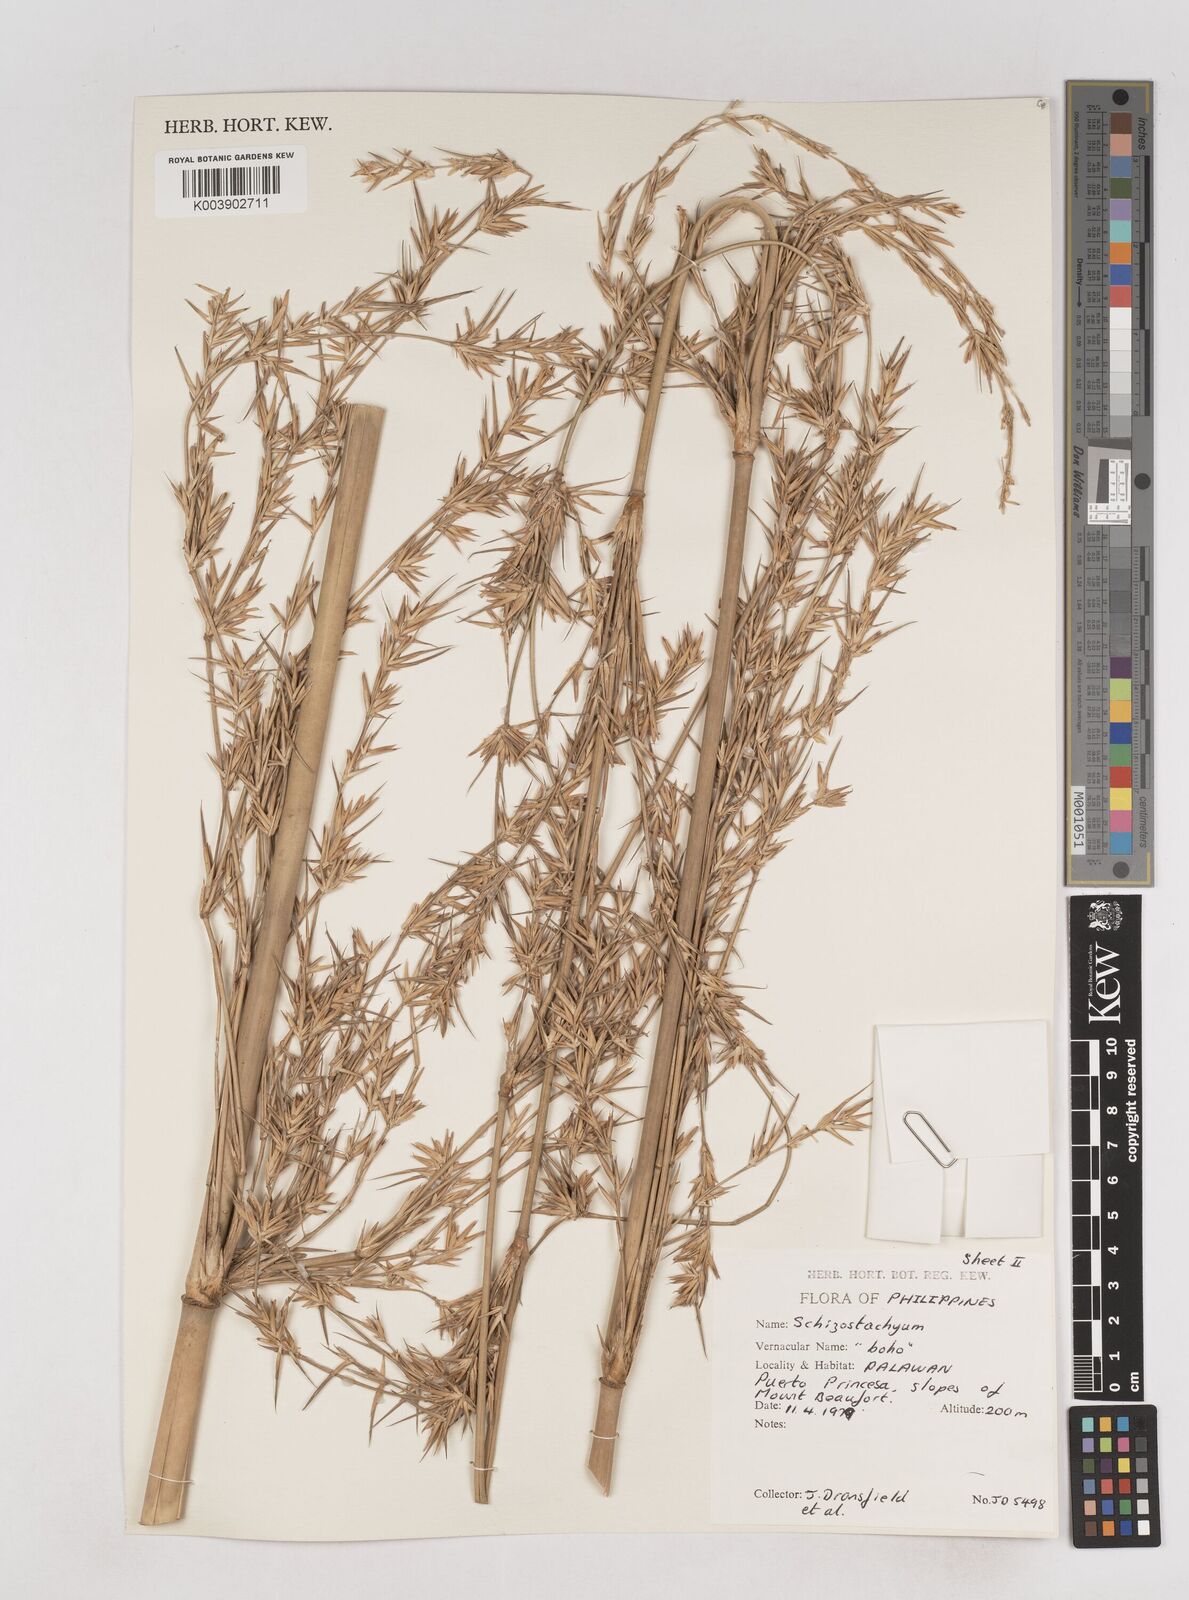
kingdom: Plantae
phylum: Tracheophyta
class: Liliopsida
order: Poales
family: Poaceae
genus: Schizostachyum
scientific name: Schizostachyum
